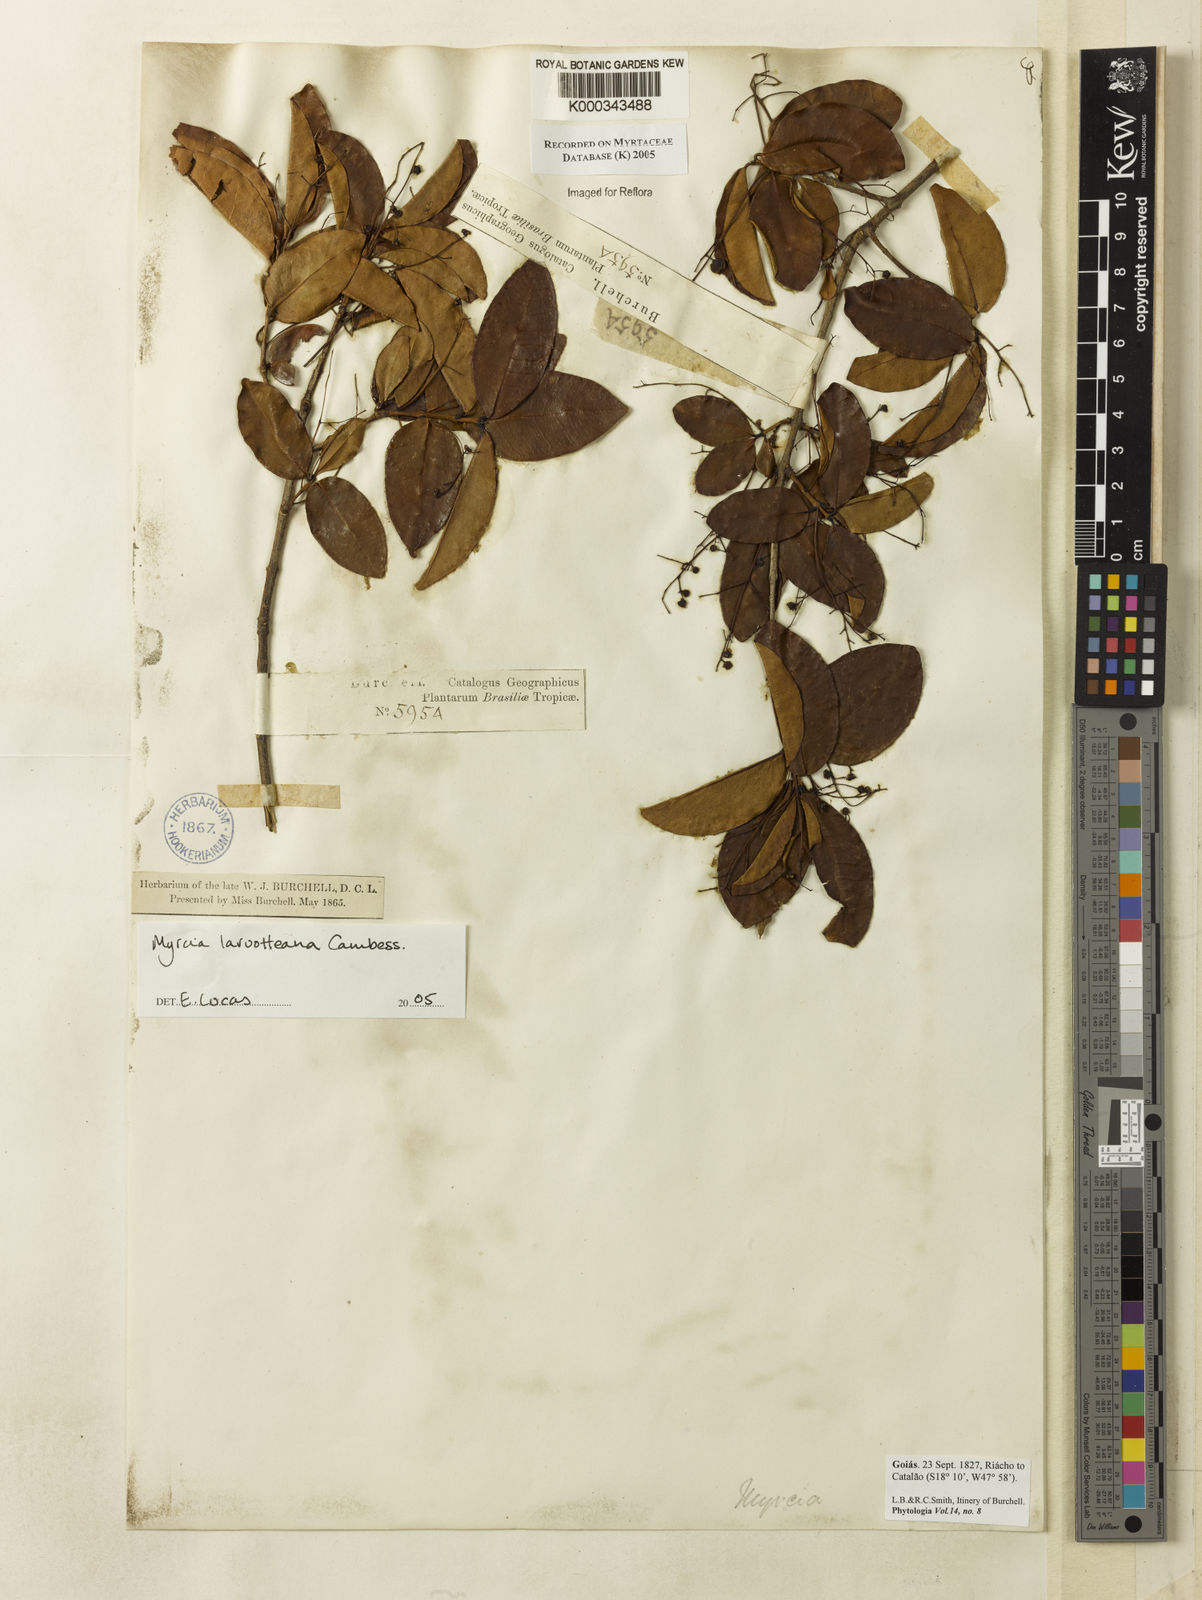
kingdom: Plantae
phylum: Tracheophyta
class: Magnoliopsida
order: Myrtales
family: Myrtaceae
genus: Myrcia
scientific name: Myrcia laruotteana
